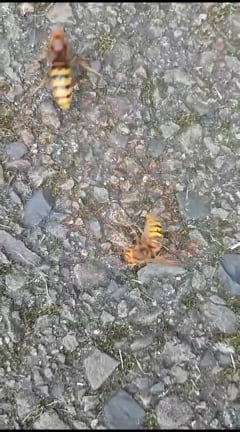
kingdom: Animalia
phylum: Arthropoda
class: Insecta
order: Hymenoptera
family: Vespidae
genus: Vespa
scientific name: Vespa crabro
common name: Hornet
